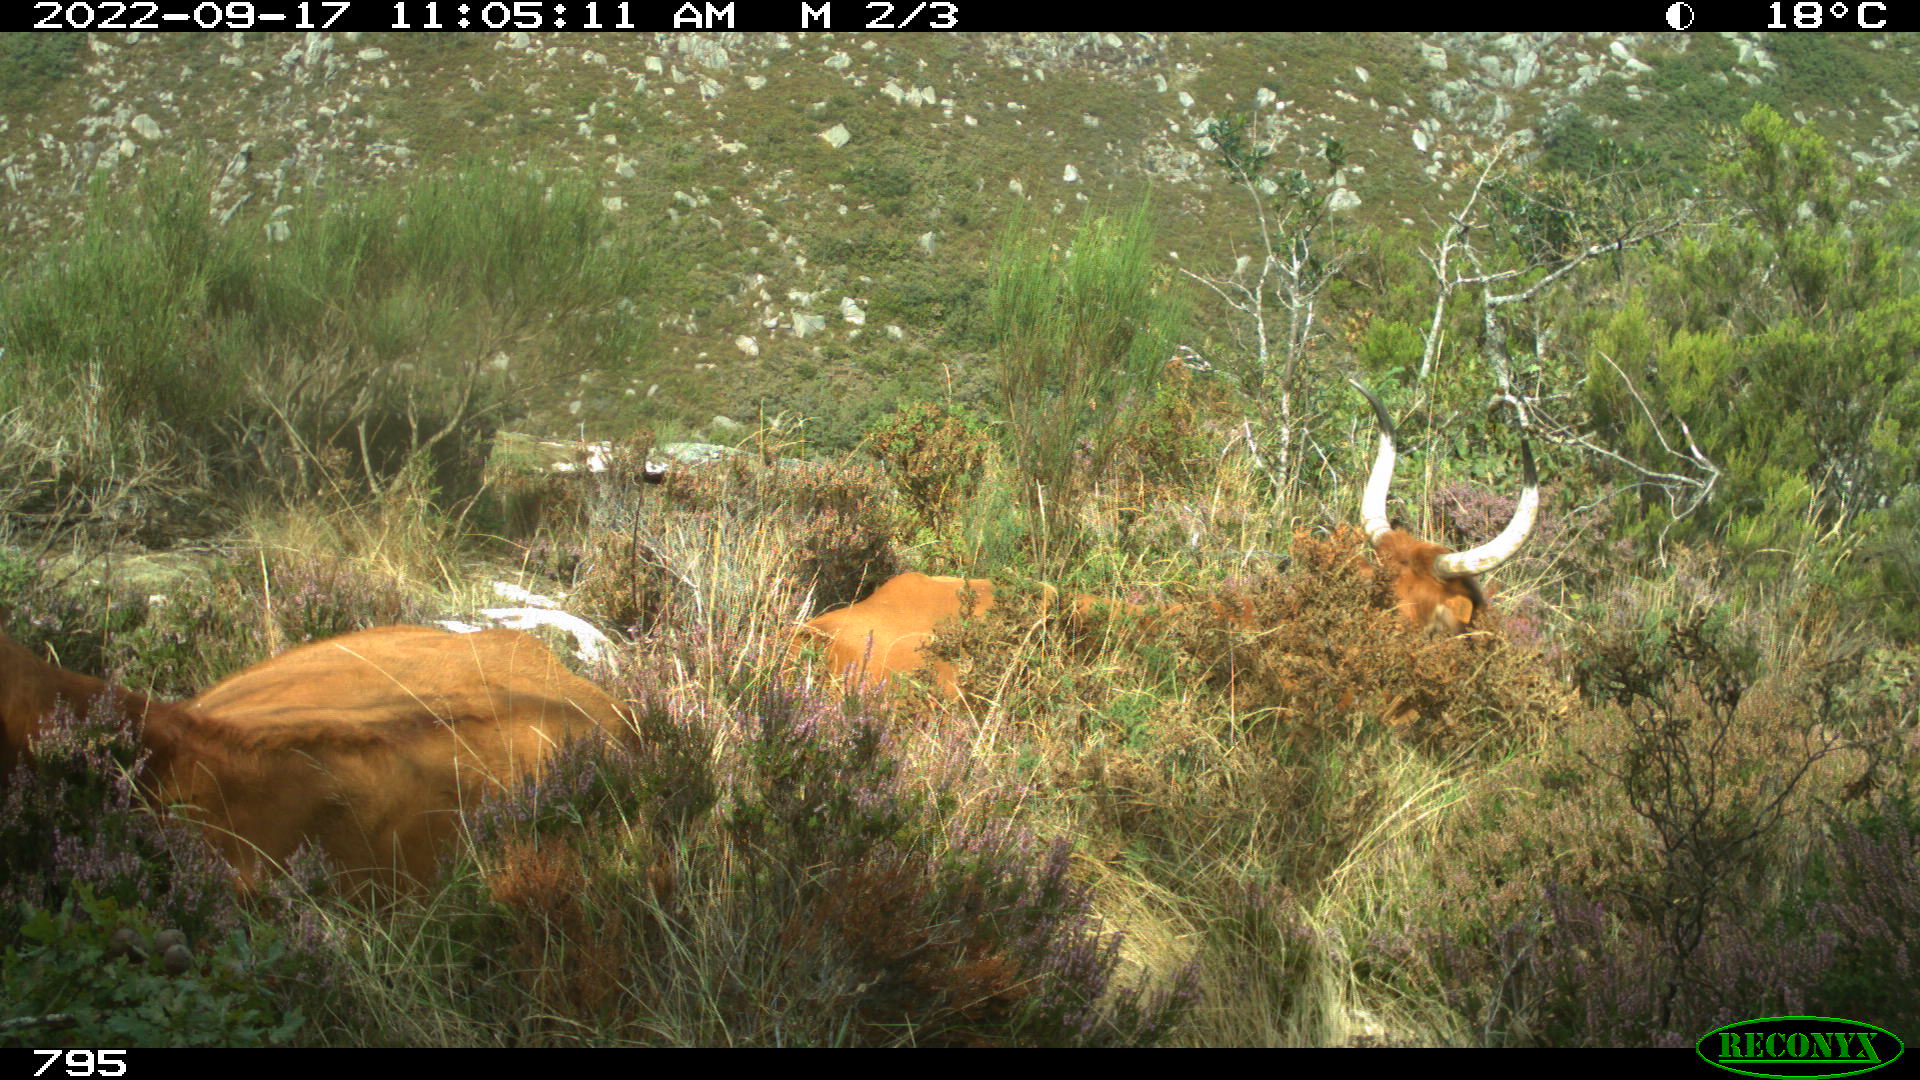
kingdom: Animalia
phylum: Chordata
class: Mammalia
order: Artiodactyla
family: Bovidae
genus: Bos
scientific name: Bos taurus
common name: Domesticated cattle
